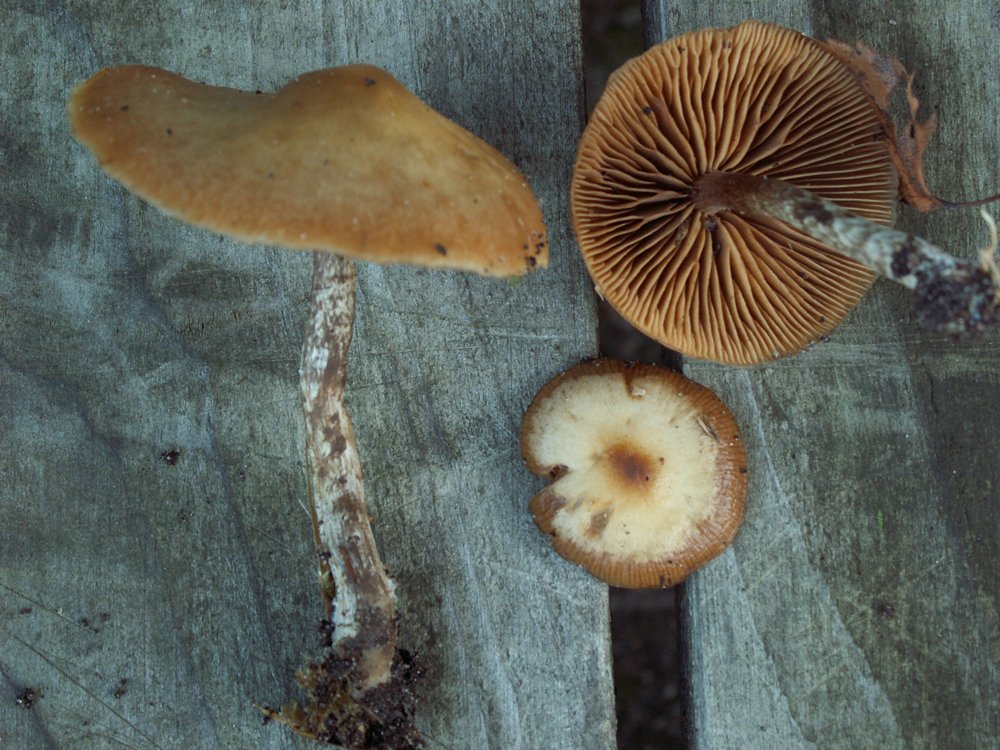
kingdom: Fungi
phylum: Basidiomycota
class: Agaricomycetes
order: Agaricales
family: Hymenogastraceae
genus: Galerina
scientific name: Galerina sideroides
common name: træflis-hjelmhat
